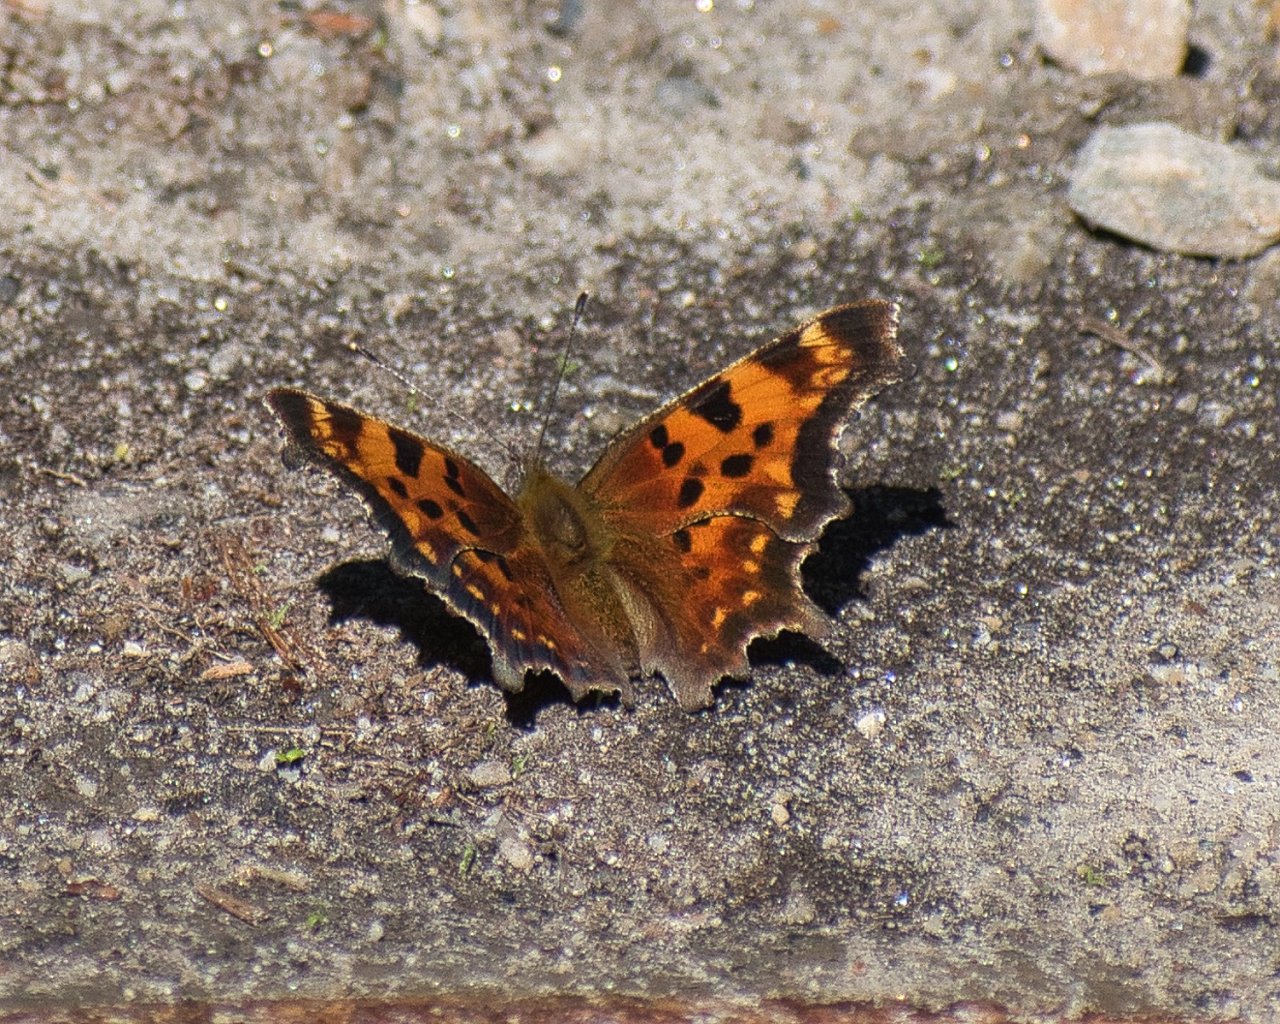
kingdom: Animalia
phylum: Arthropoda
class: Insecta
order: Lepidoptera
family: Nymphalidae
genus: Polygonia
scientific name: Polygonia faunus
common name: Green Comma
